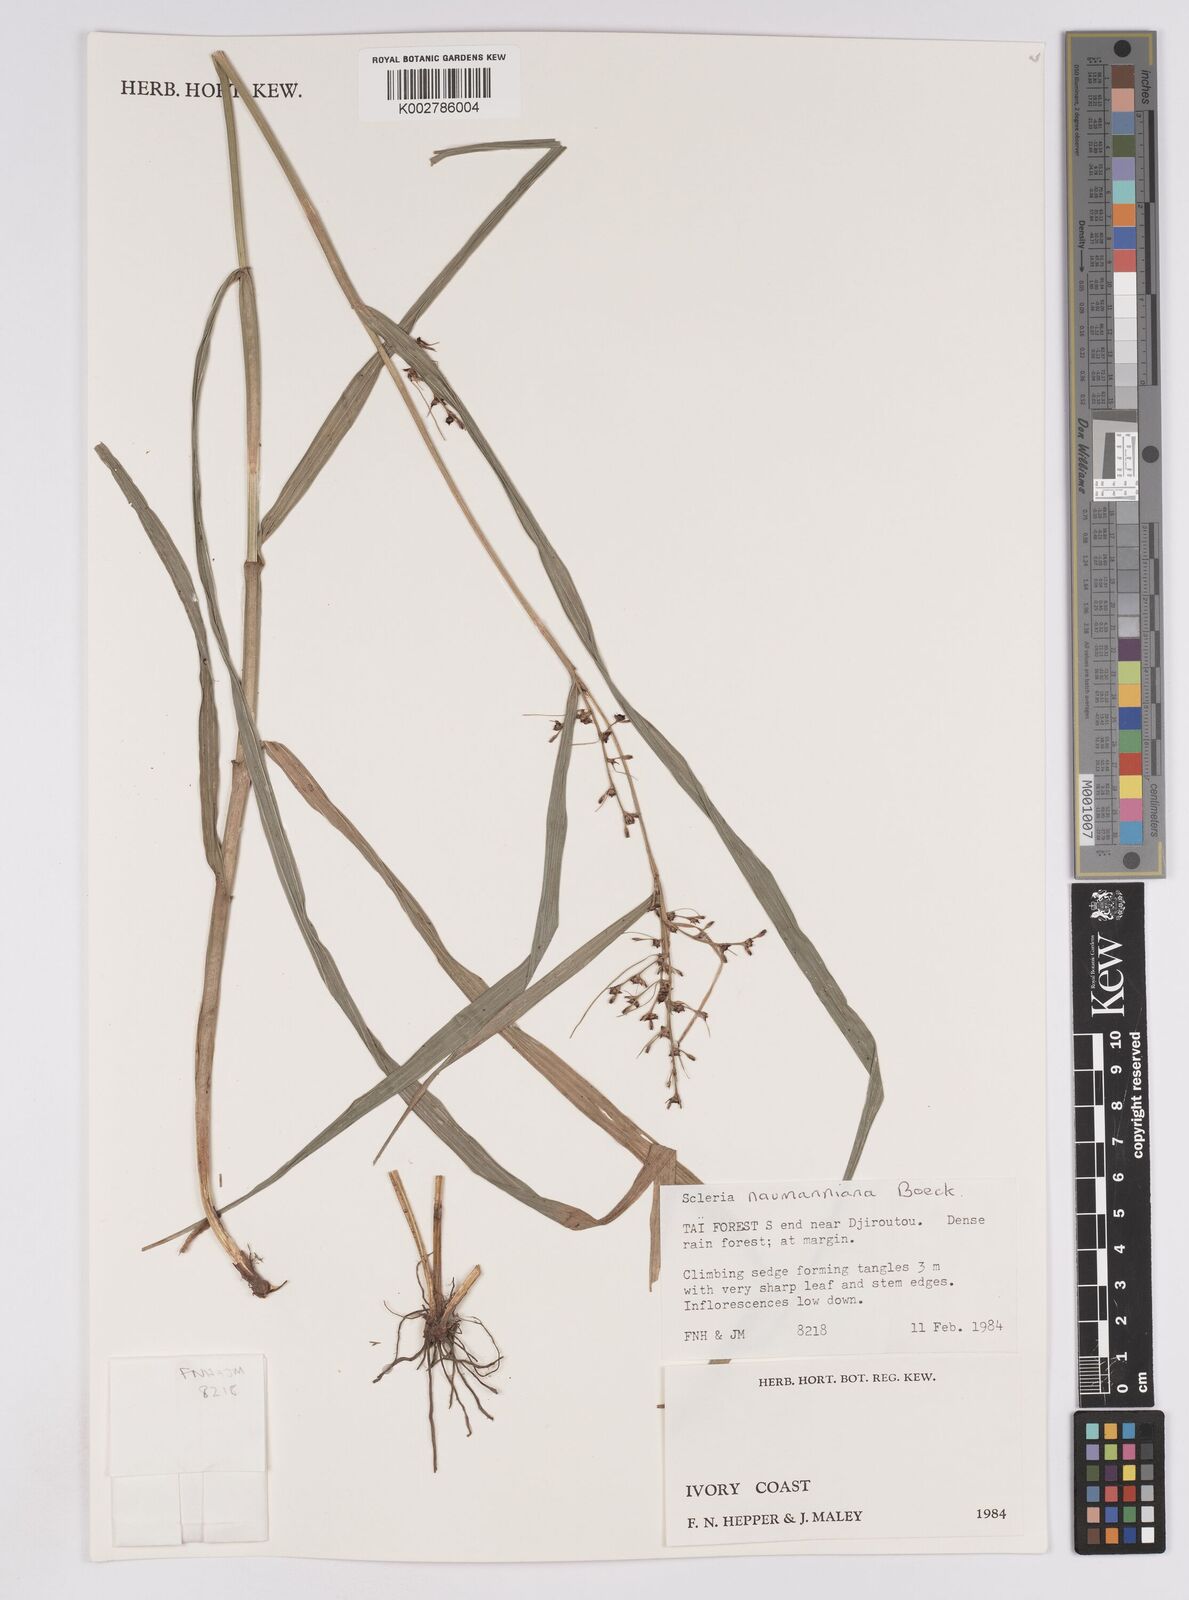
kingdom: Plantae
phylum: Tracheophyta
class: Liliopsida
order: Poales
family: Cyperaceae
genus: Scleria
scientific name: Scleria naumanniana
